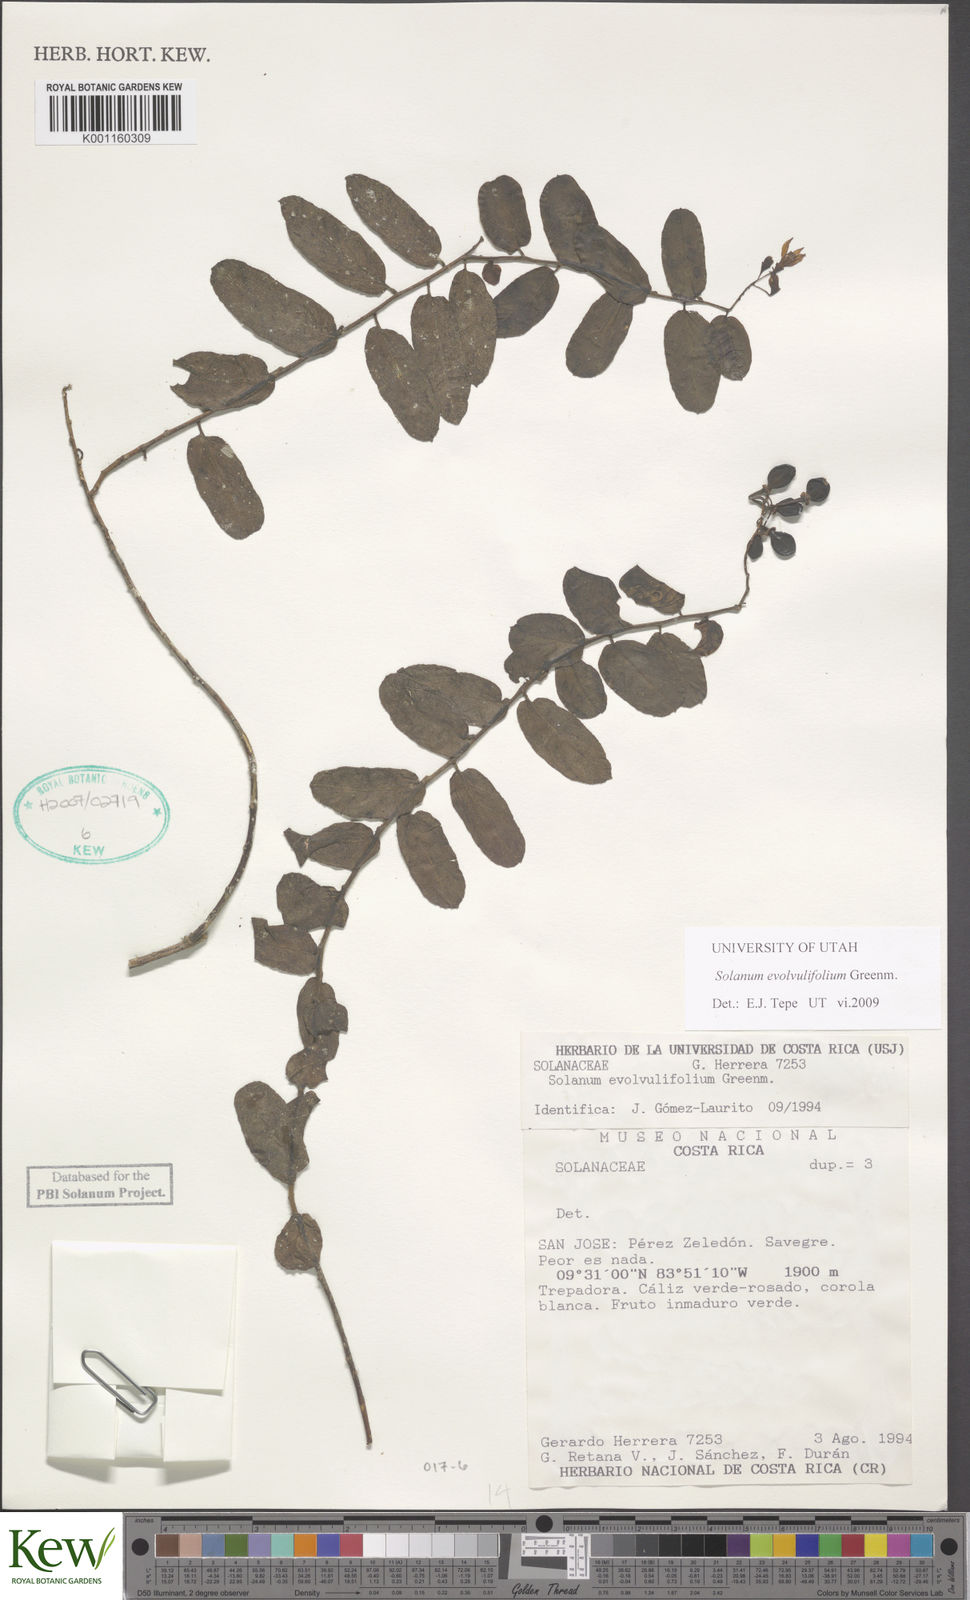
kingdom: Plantae
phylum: Tracheophyta
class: Magnoliopsida
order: Solanales
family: Solanaceae
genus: Solanum
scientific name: Solanum evolvulifolium
